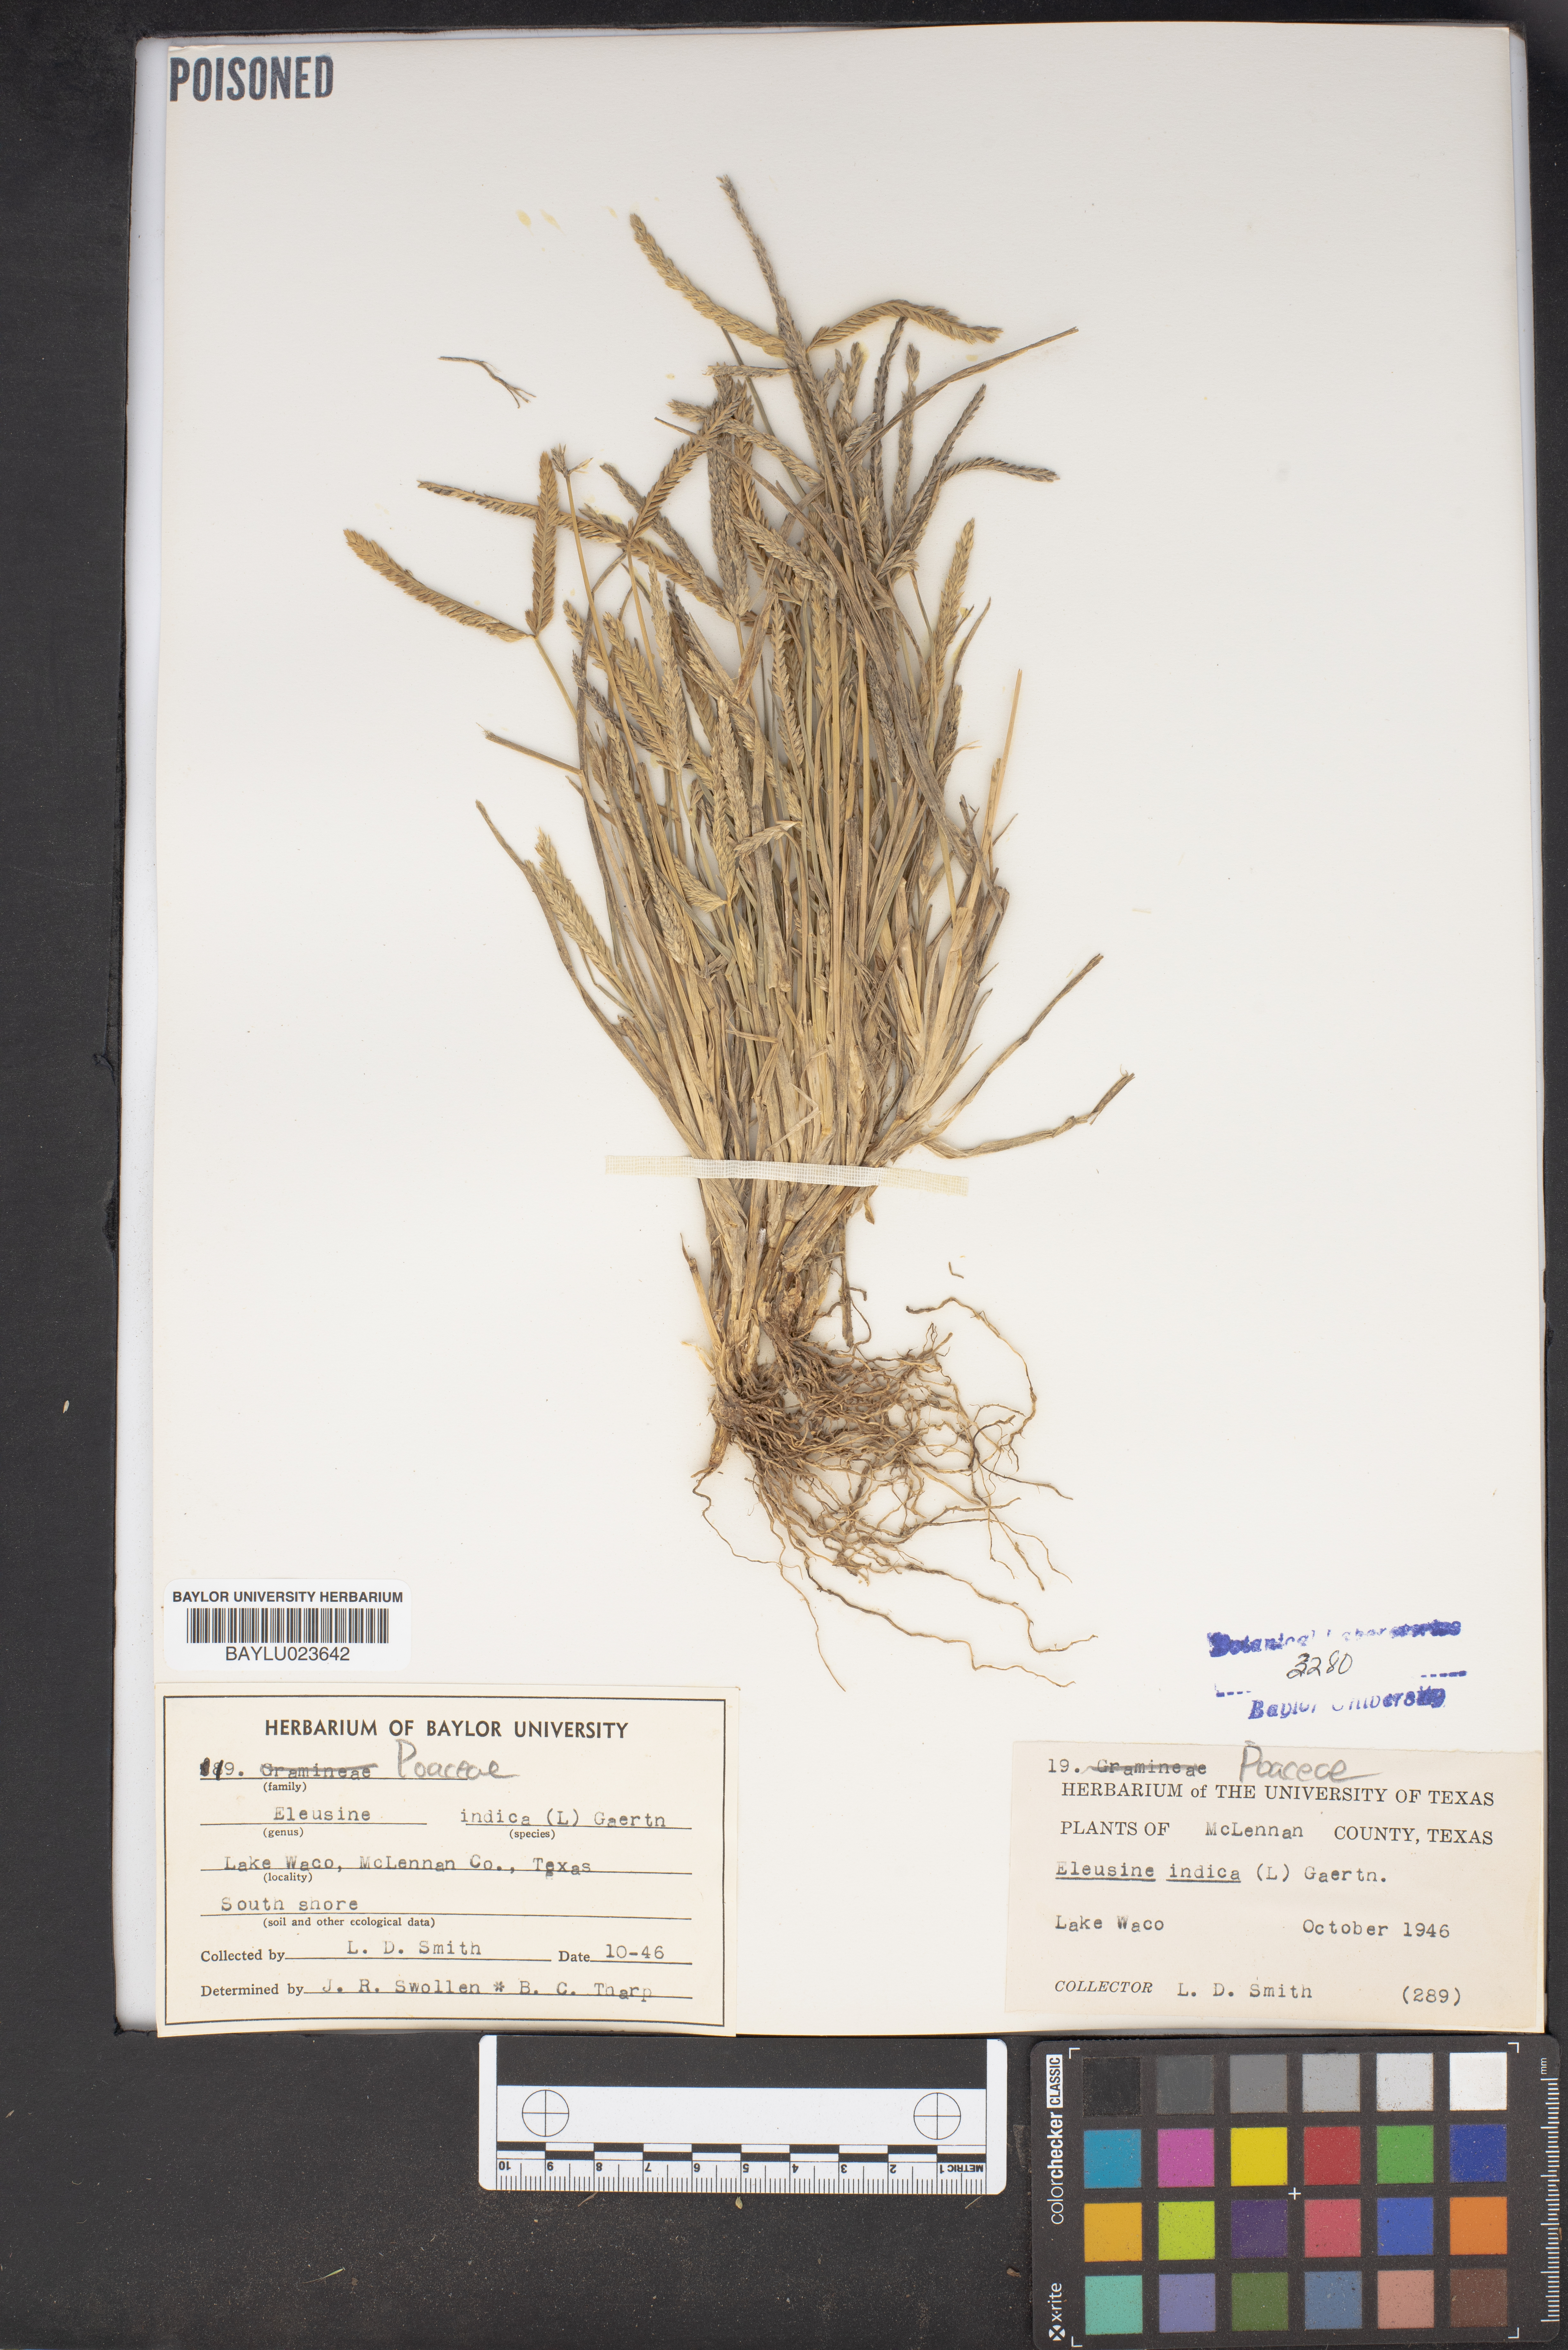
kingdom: Plantae
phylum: Tracheophyta
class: Liliopsida
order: Poales
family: Poaceae
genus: Eleusine
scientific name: Eleusine indica
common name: Yard-grass
